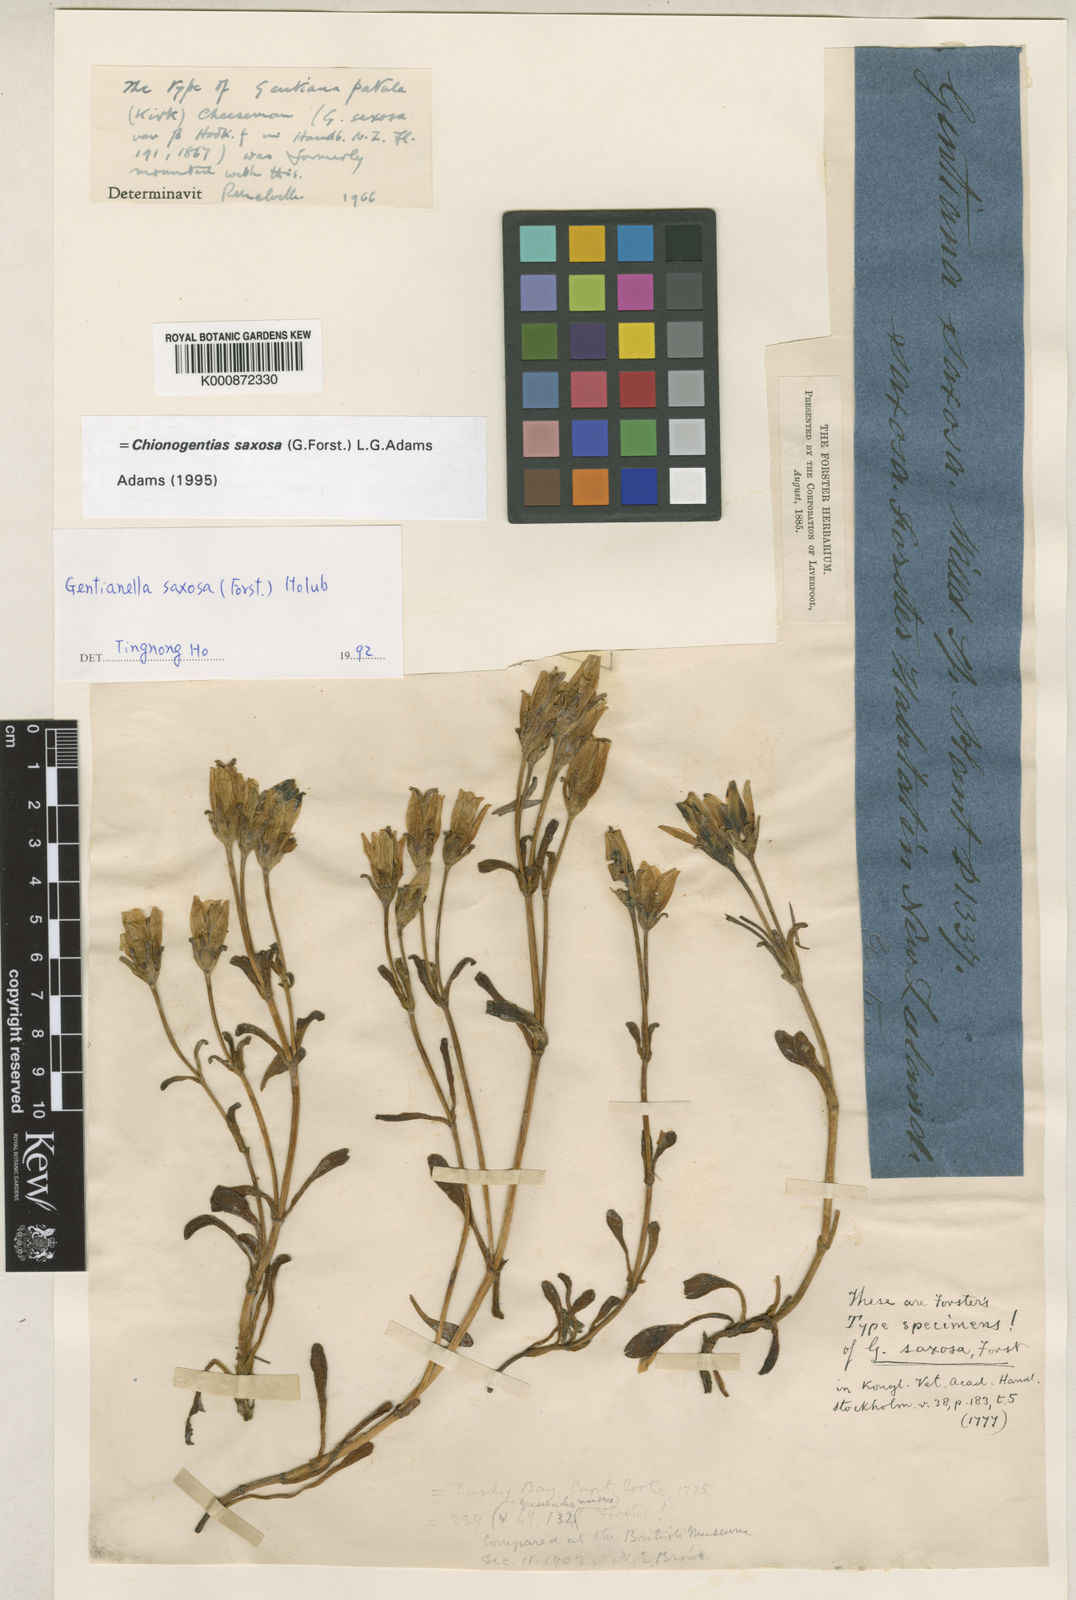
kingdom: Plantae
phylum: Tracheophyta
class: Magnoliopsida
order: Gentianales
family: Gentianaceae
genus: Gentianella
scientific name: Gentianella saxosa
